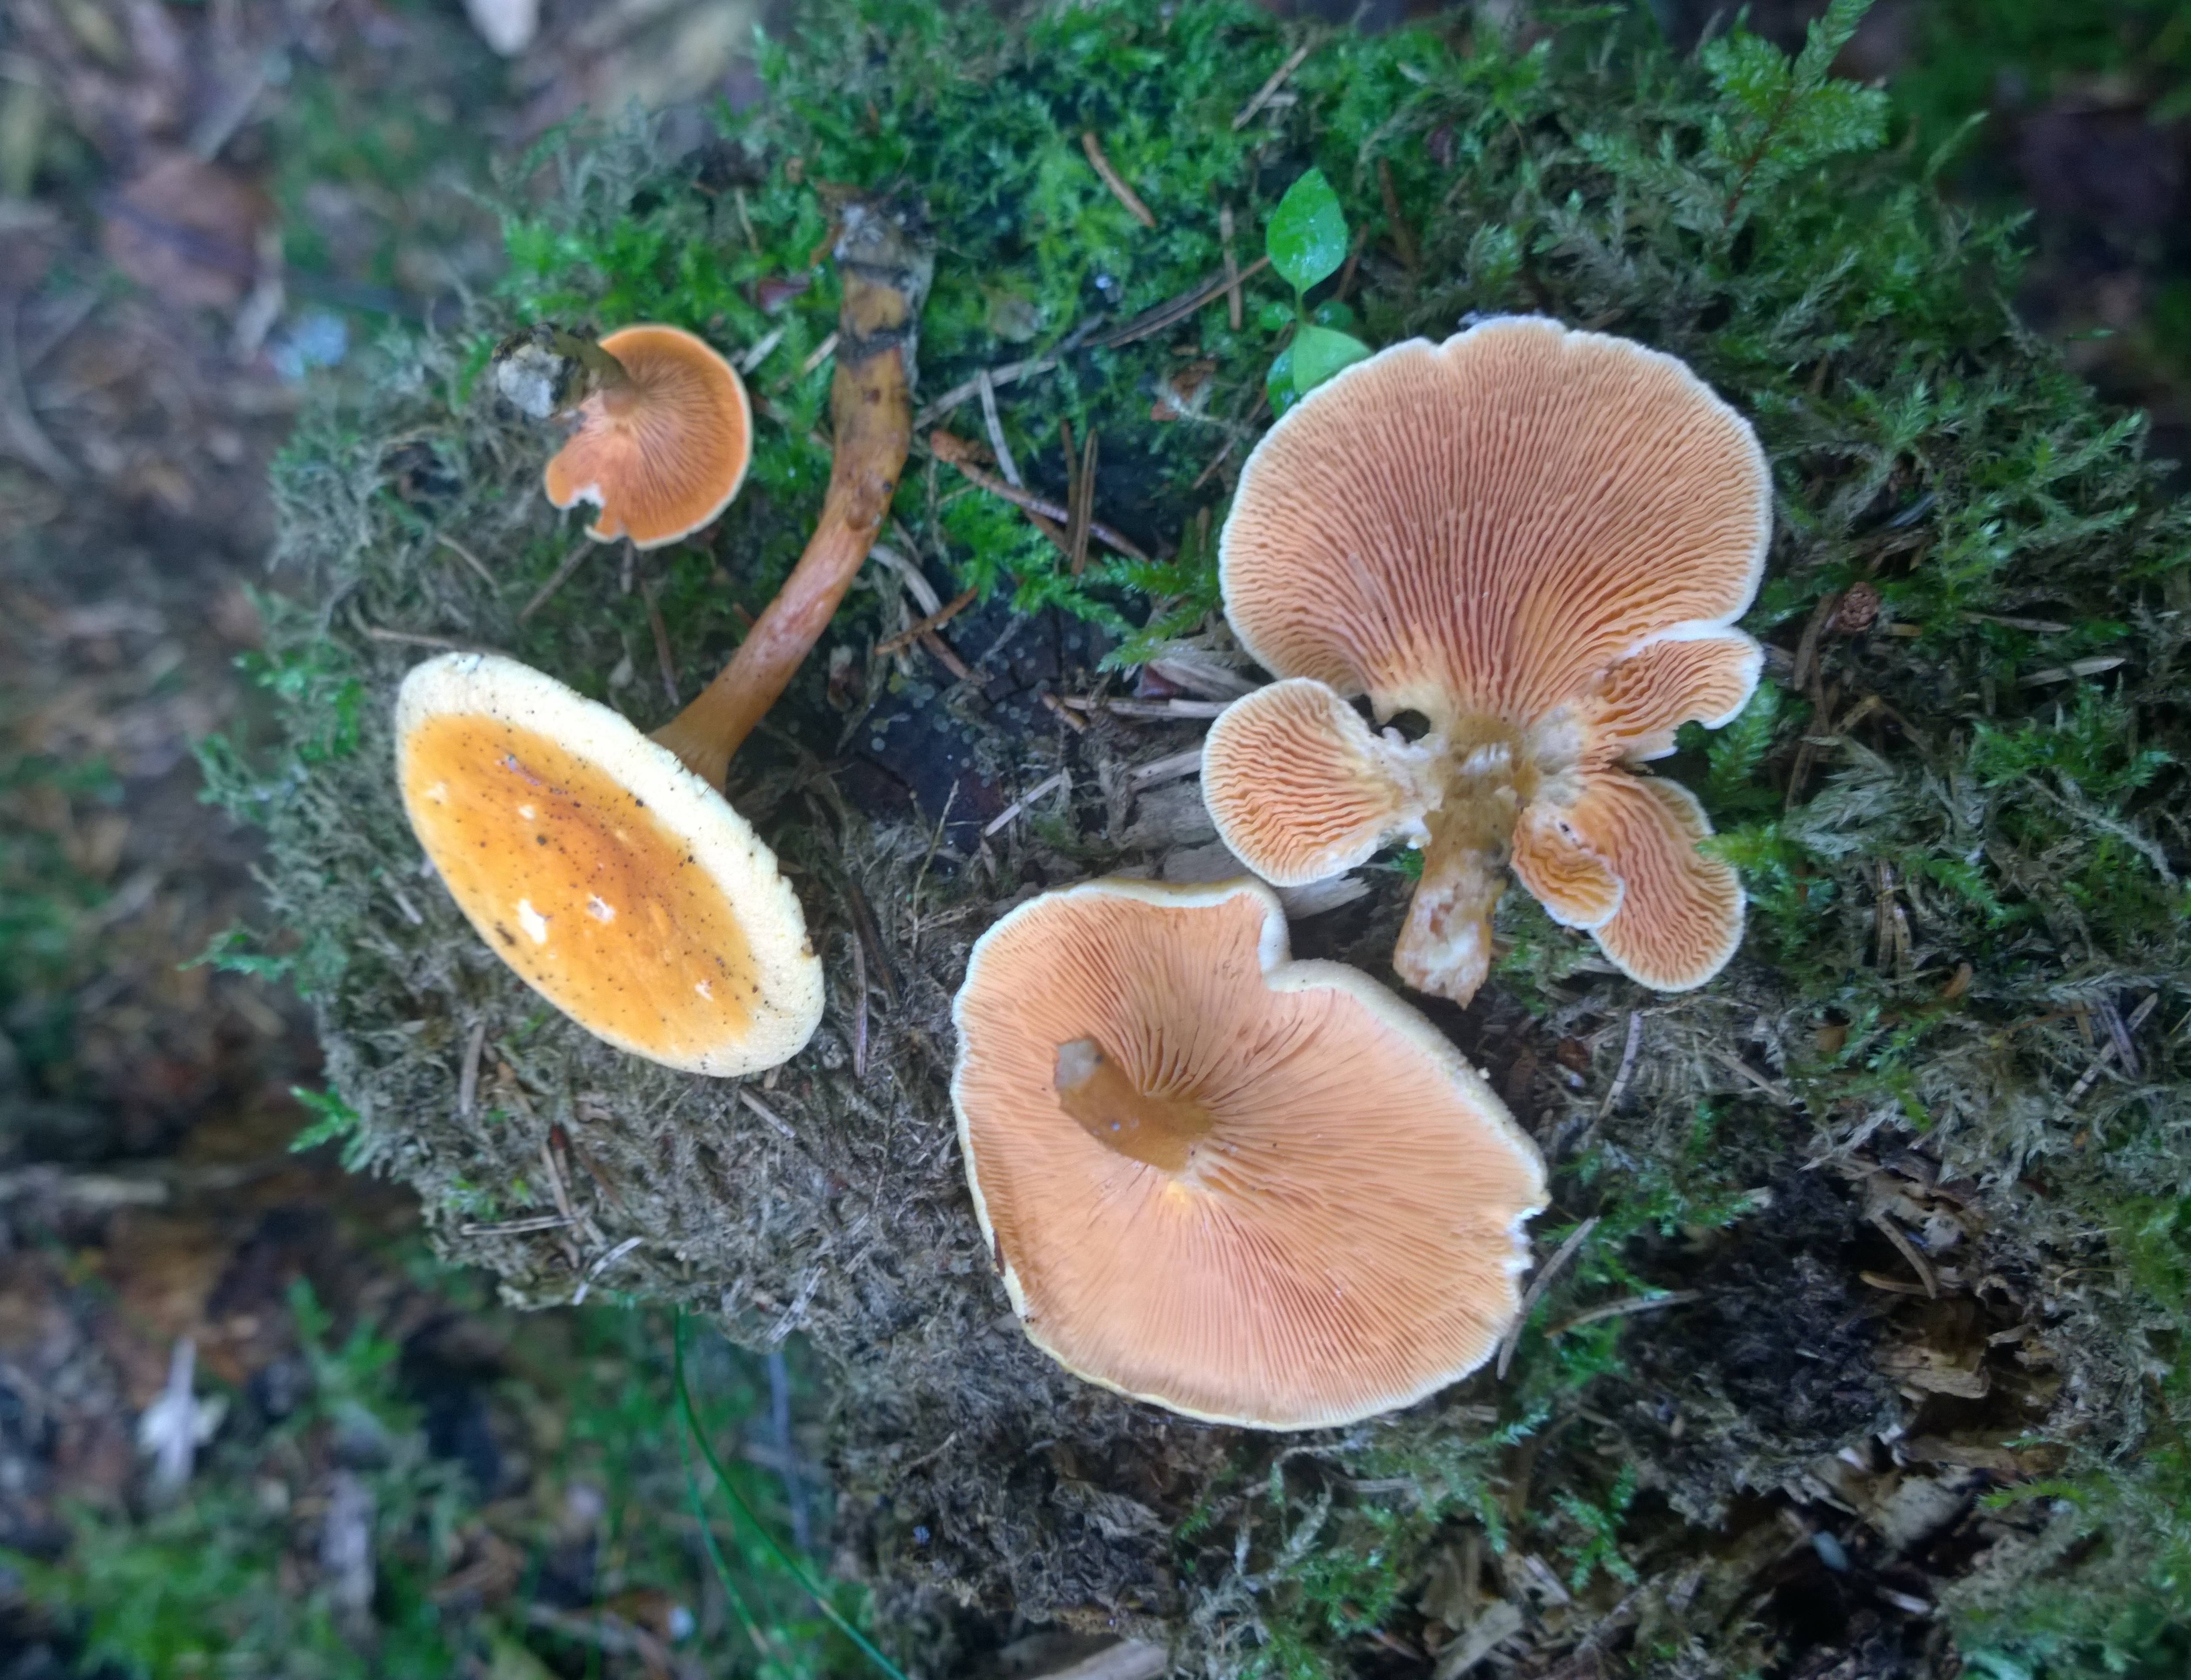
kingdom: Fungi
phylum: Basidiomycota
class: Agaricomycetes
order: Boletales
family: Hygrophoropsidaceae
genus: Hygrophoropsis
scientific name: Hygrophoropsis aurantiaca
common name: False chanterelle
